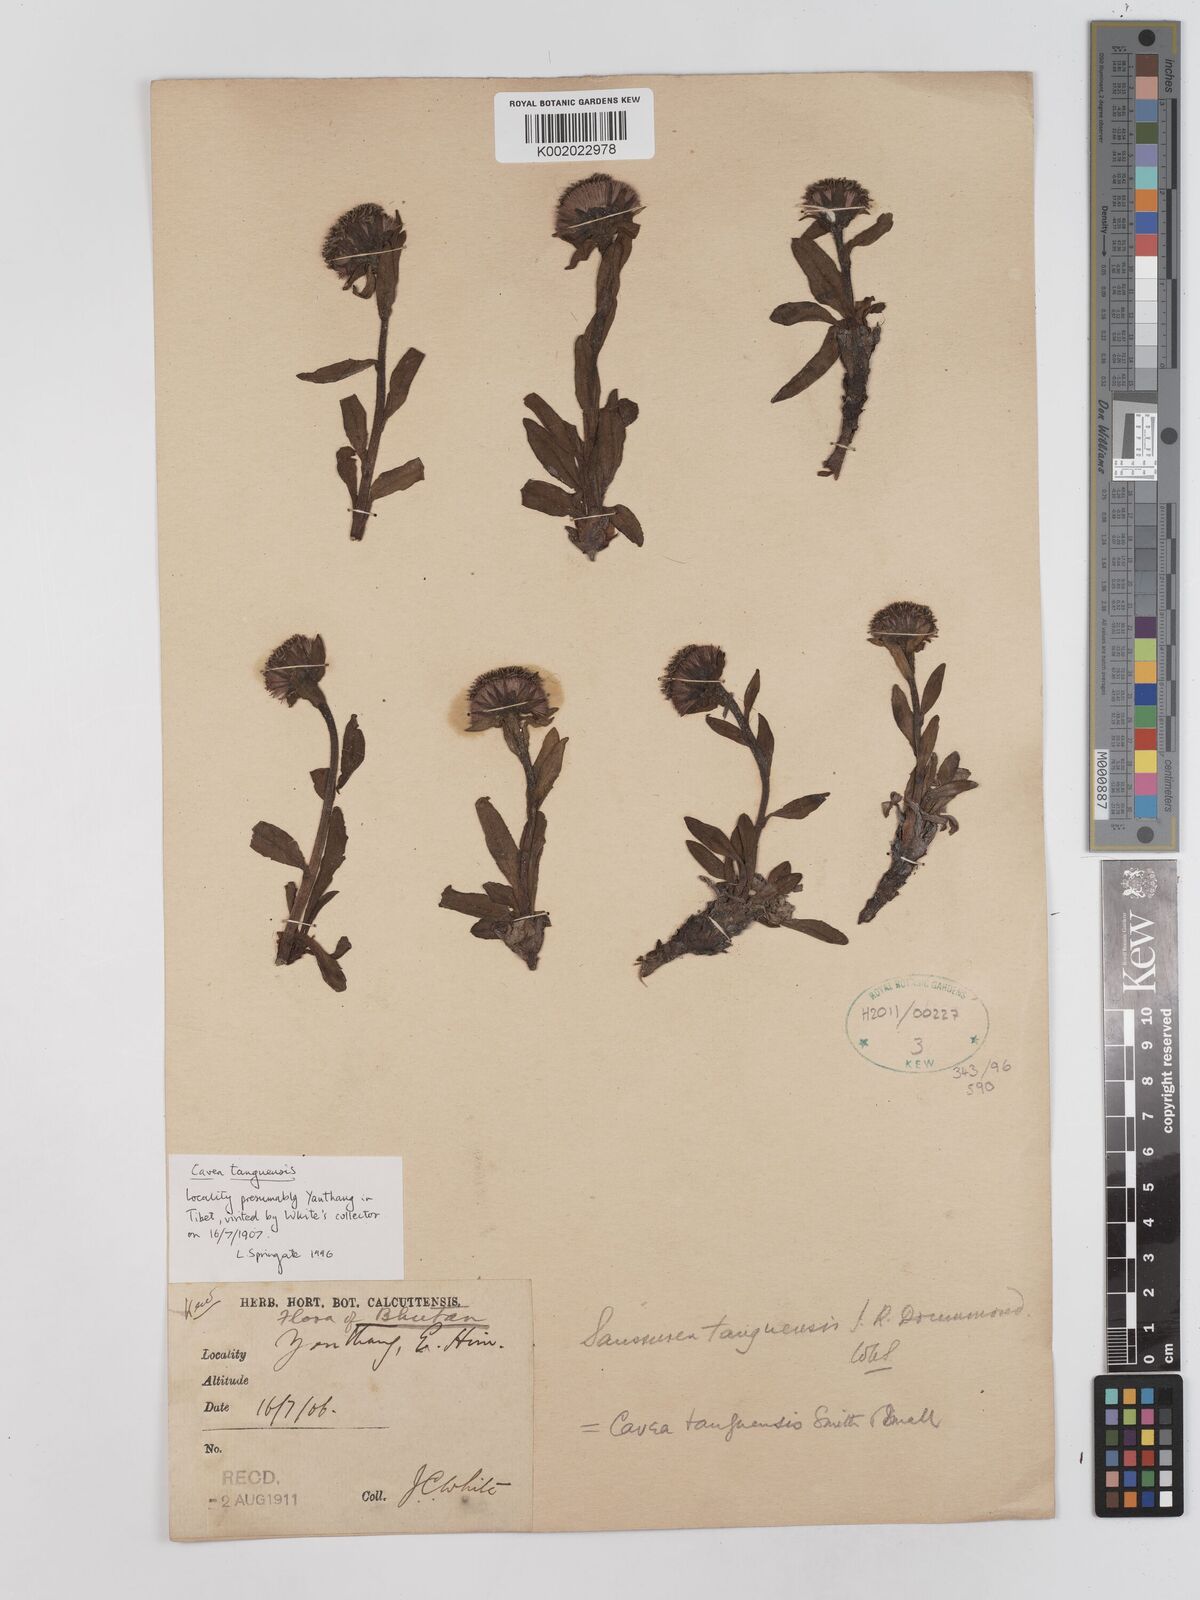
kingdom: Plantae
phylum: Tracheophyta
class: Magnoliopsida
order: Asterales
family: Asteraceae
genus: Cavea
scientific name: Cavea tanguensis
